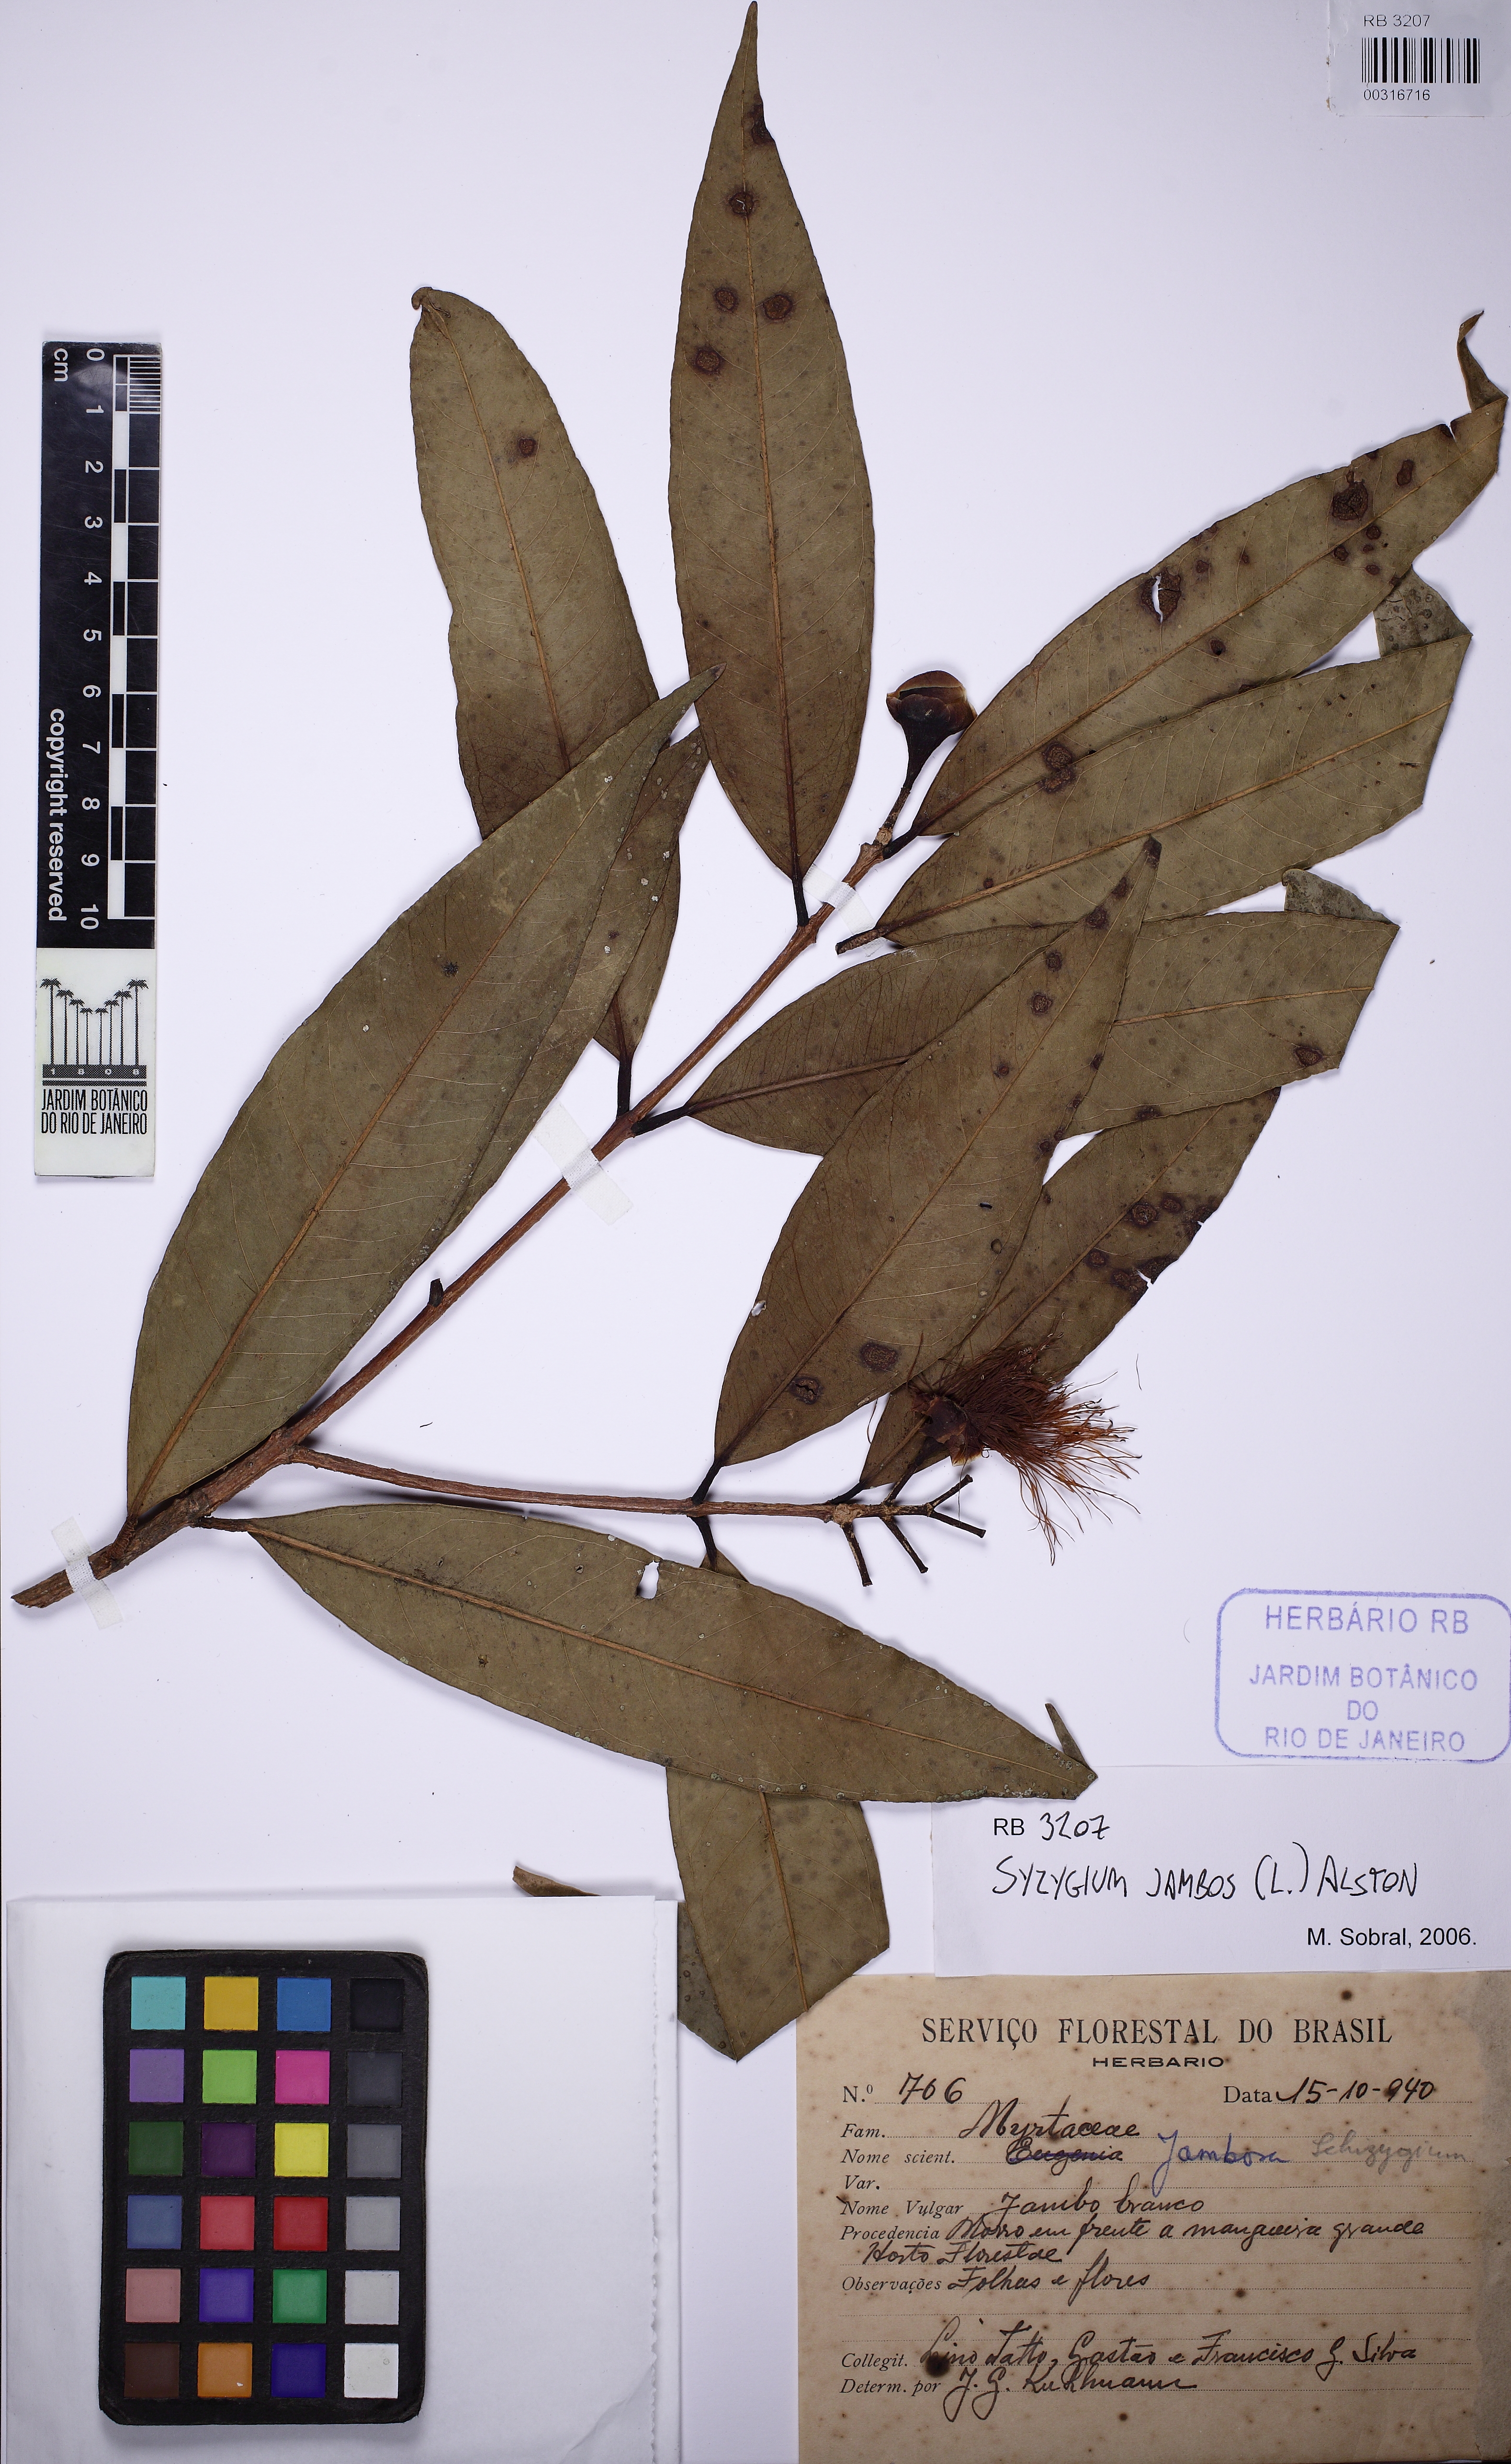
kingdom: Plantae
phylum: Tracheophyta
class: Magnoliopsida
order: Myrtales
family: Myrtaceae
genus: Syzygium
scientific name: Syzygium jambos
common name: Malabar plum
